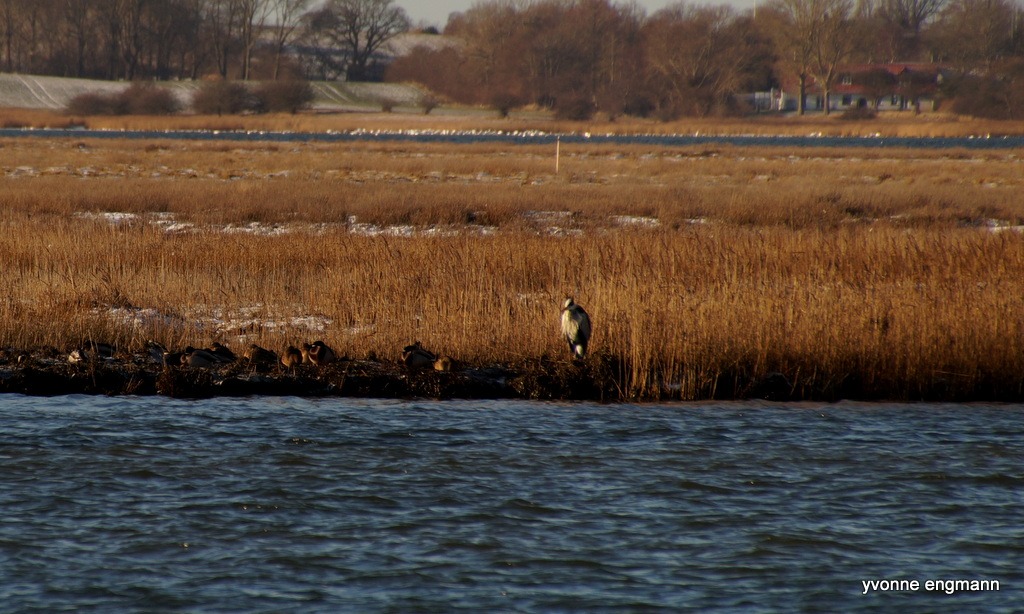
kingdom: Animalia
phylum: Chordata
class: Aves
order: Pelecaniformes
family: Ardeidae
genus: Ardea
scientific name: Ardea cinerea
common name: Fiskehejre
